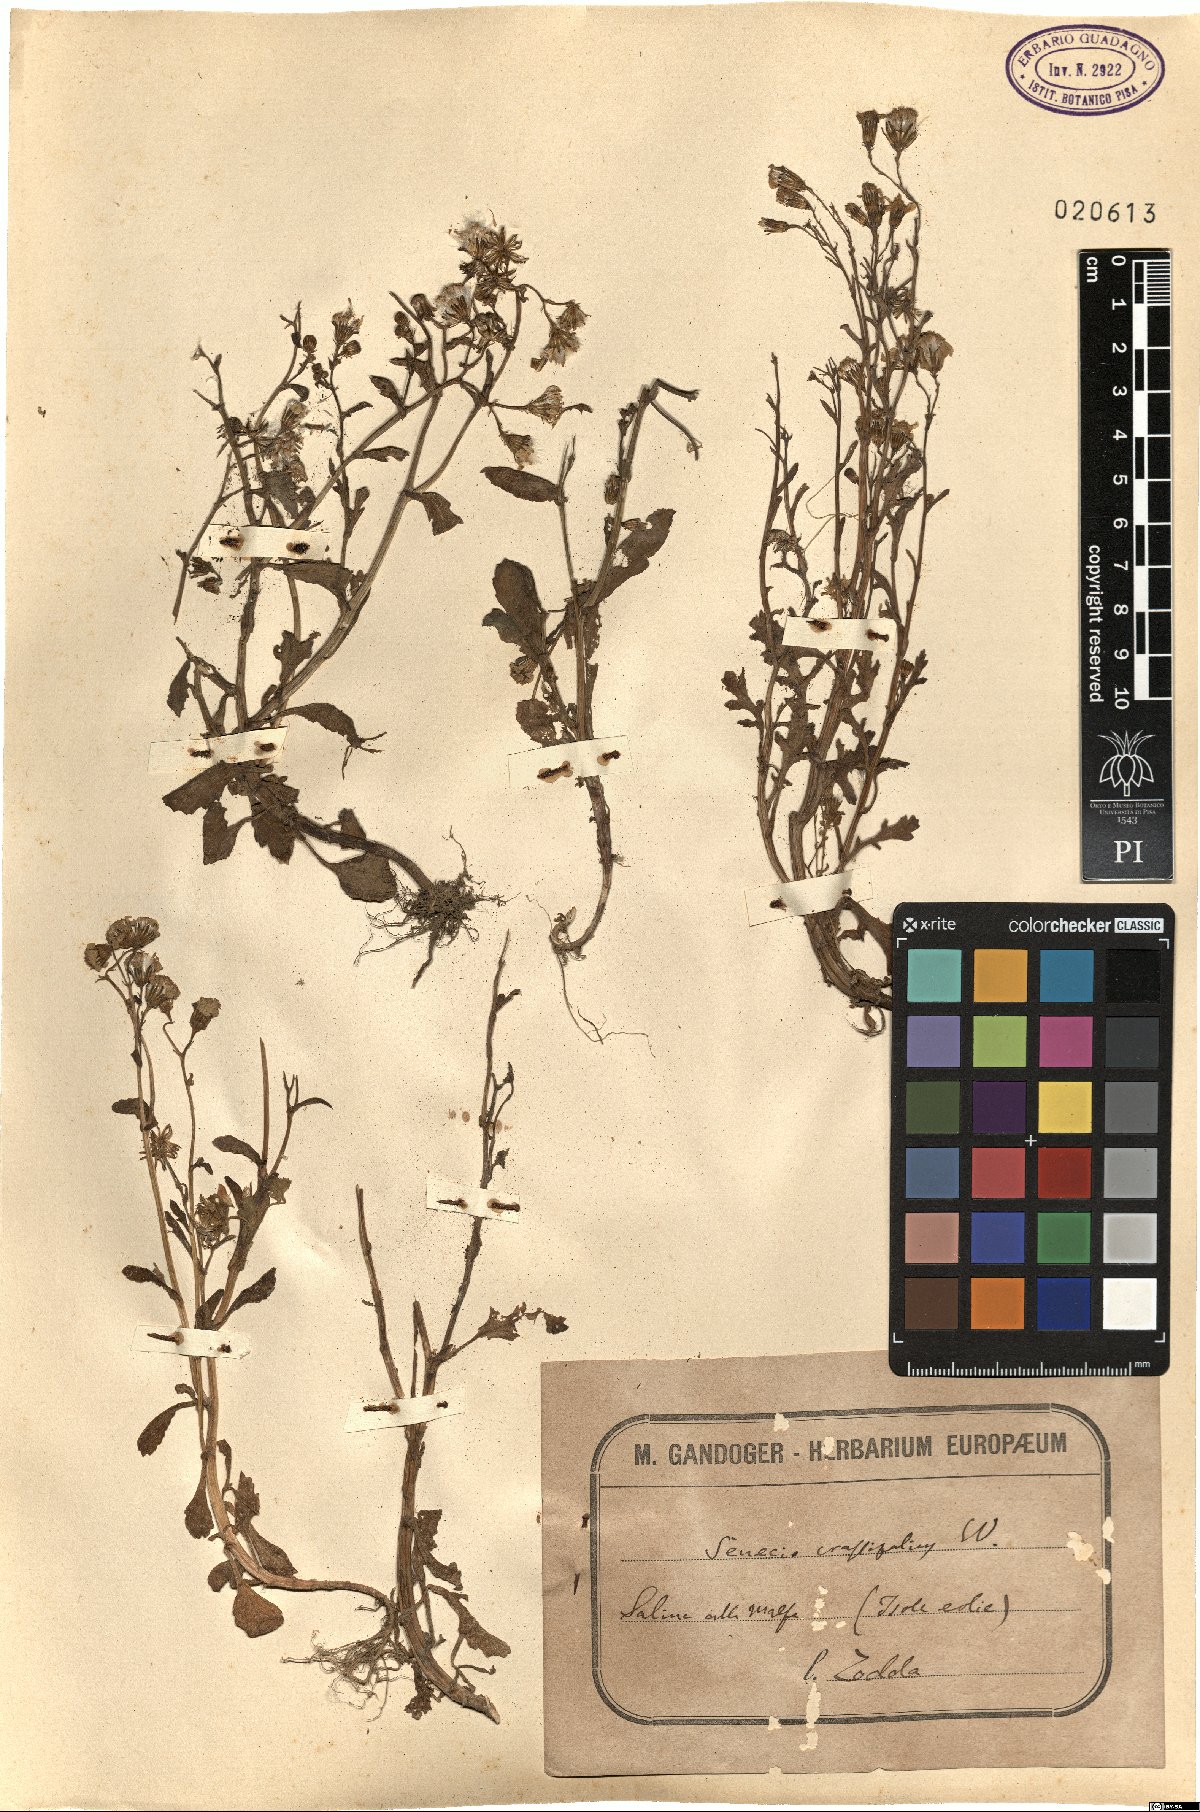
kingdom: Plantae
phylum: Tracheophyta
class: Magnoliopsida
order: Asterales
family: Asteraceae
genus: Senecio
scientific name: Senecio leucanthemifolius
